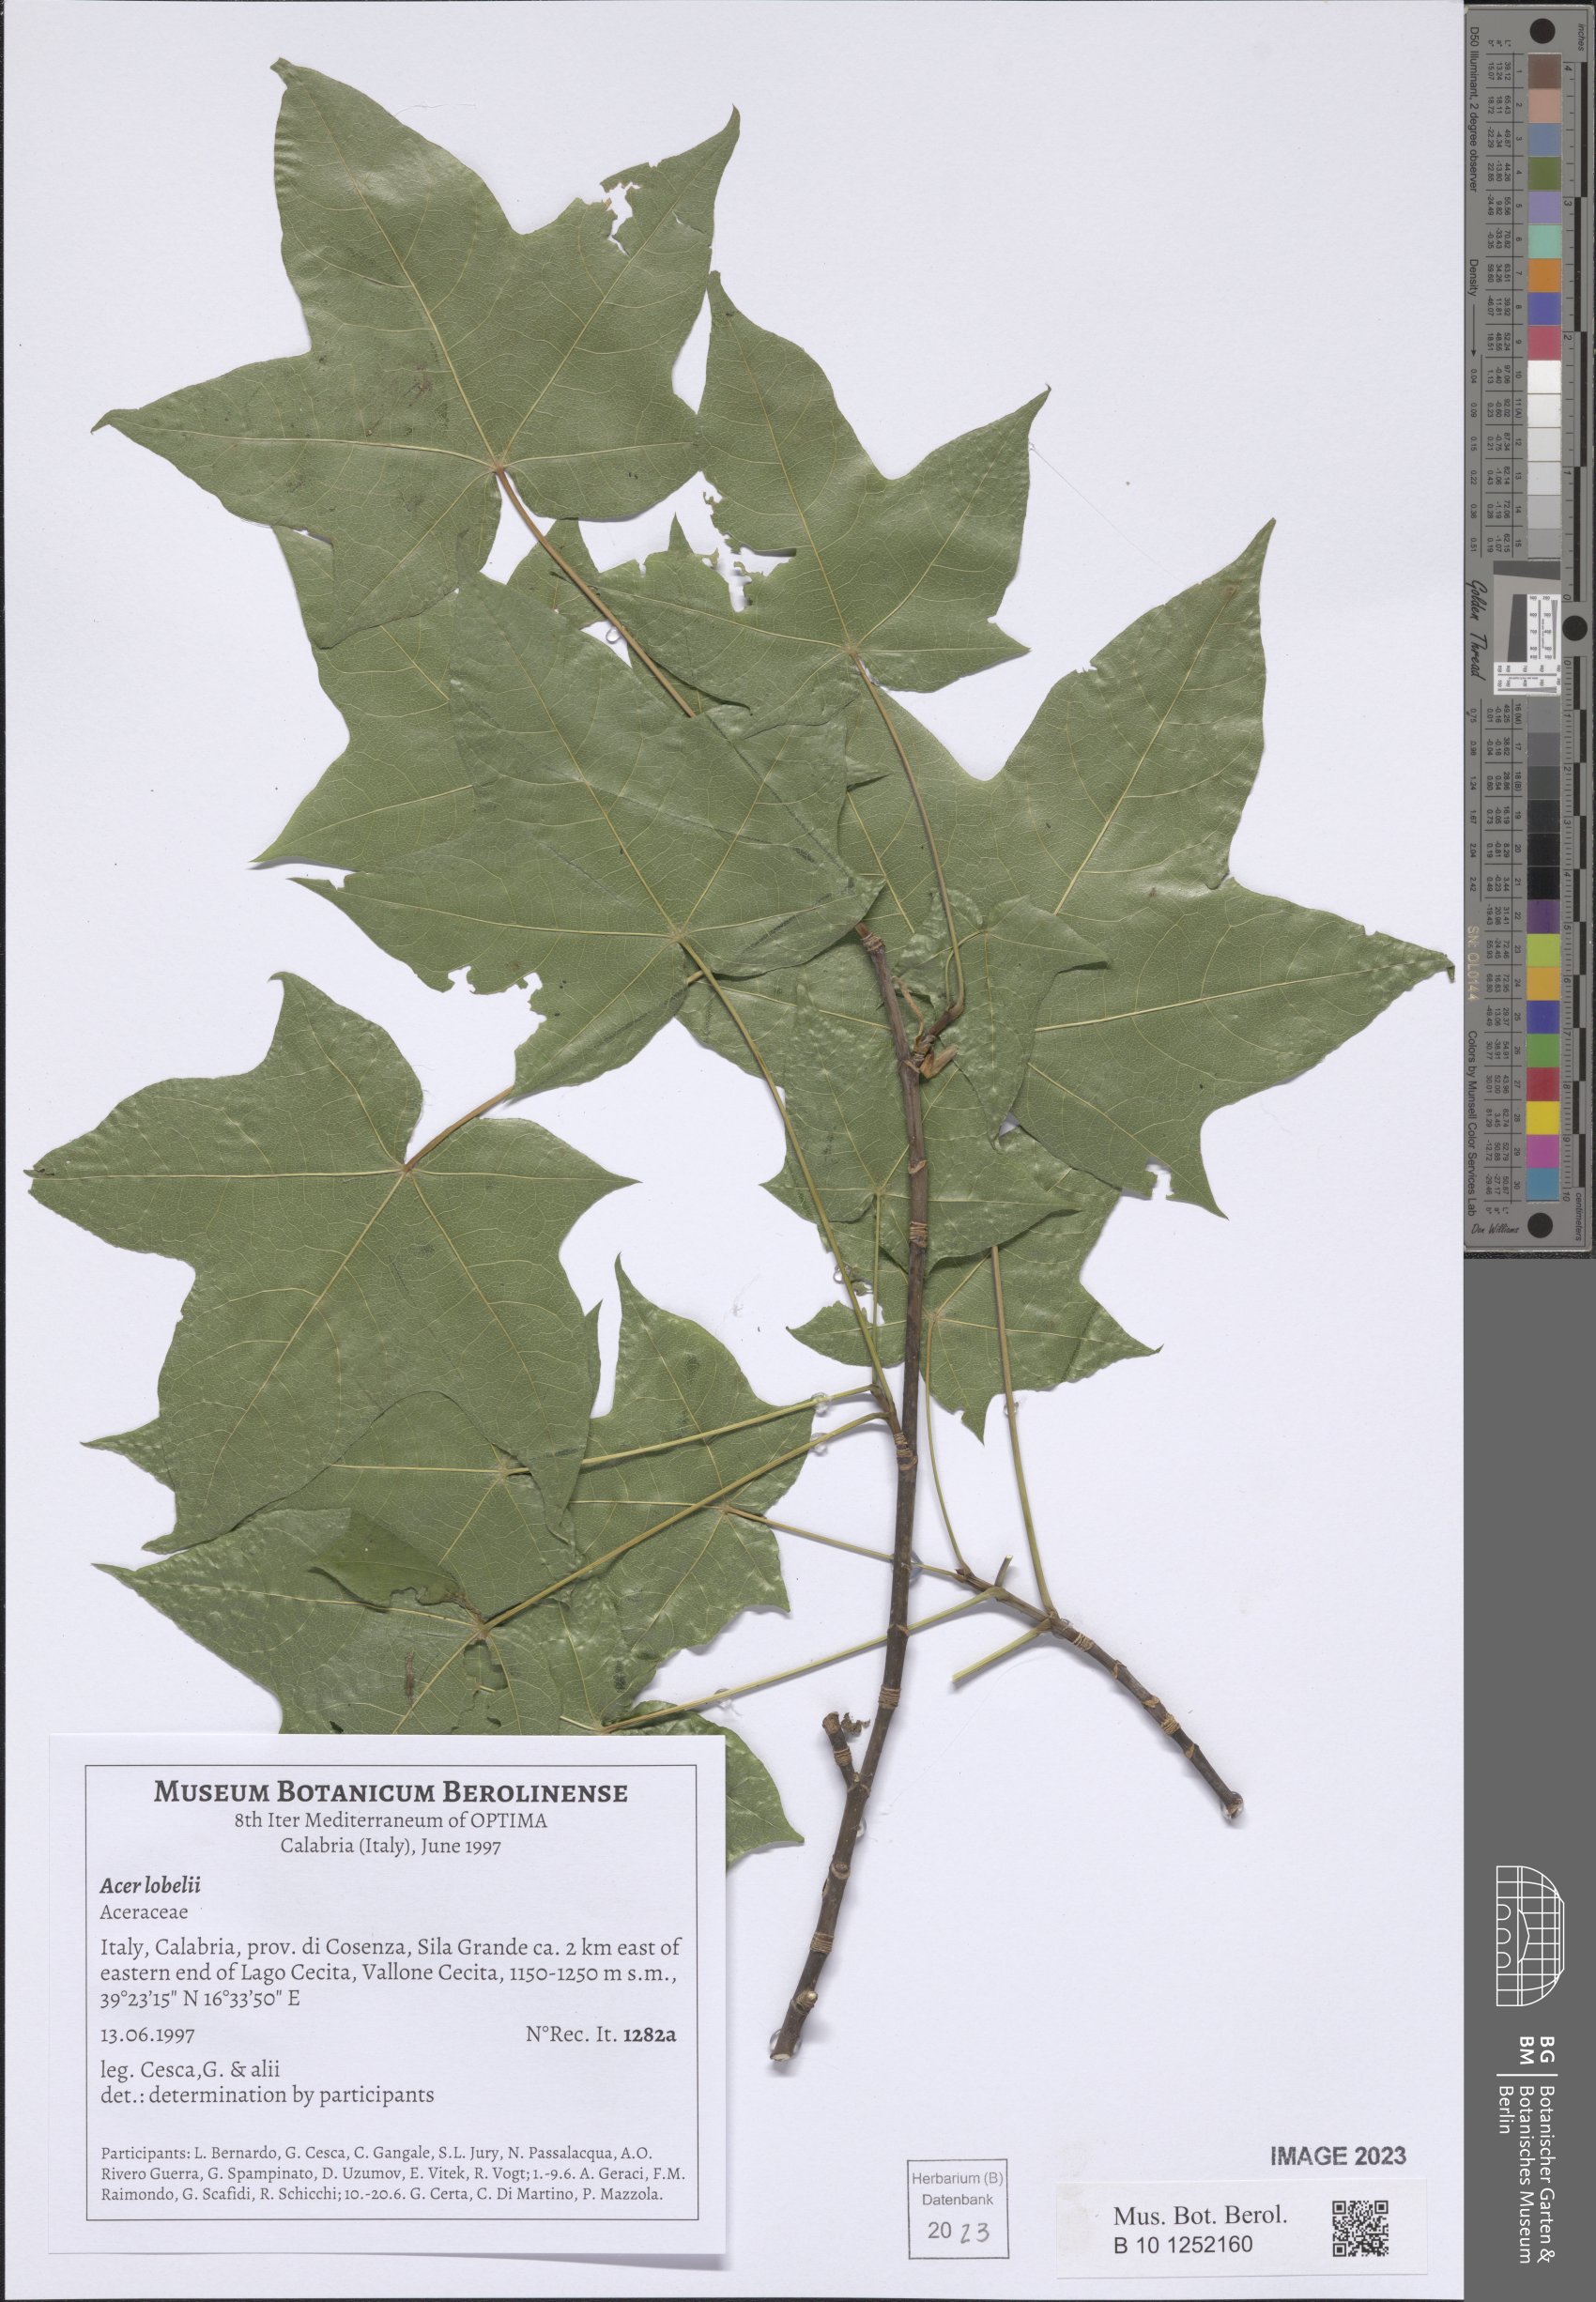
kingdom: Plantae
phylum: Tracheophyta
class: Magnoliopsida
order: Sapindales
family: Sapindaceae
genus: Acer
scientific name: Acer lobelii
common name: Lobel's maple
